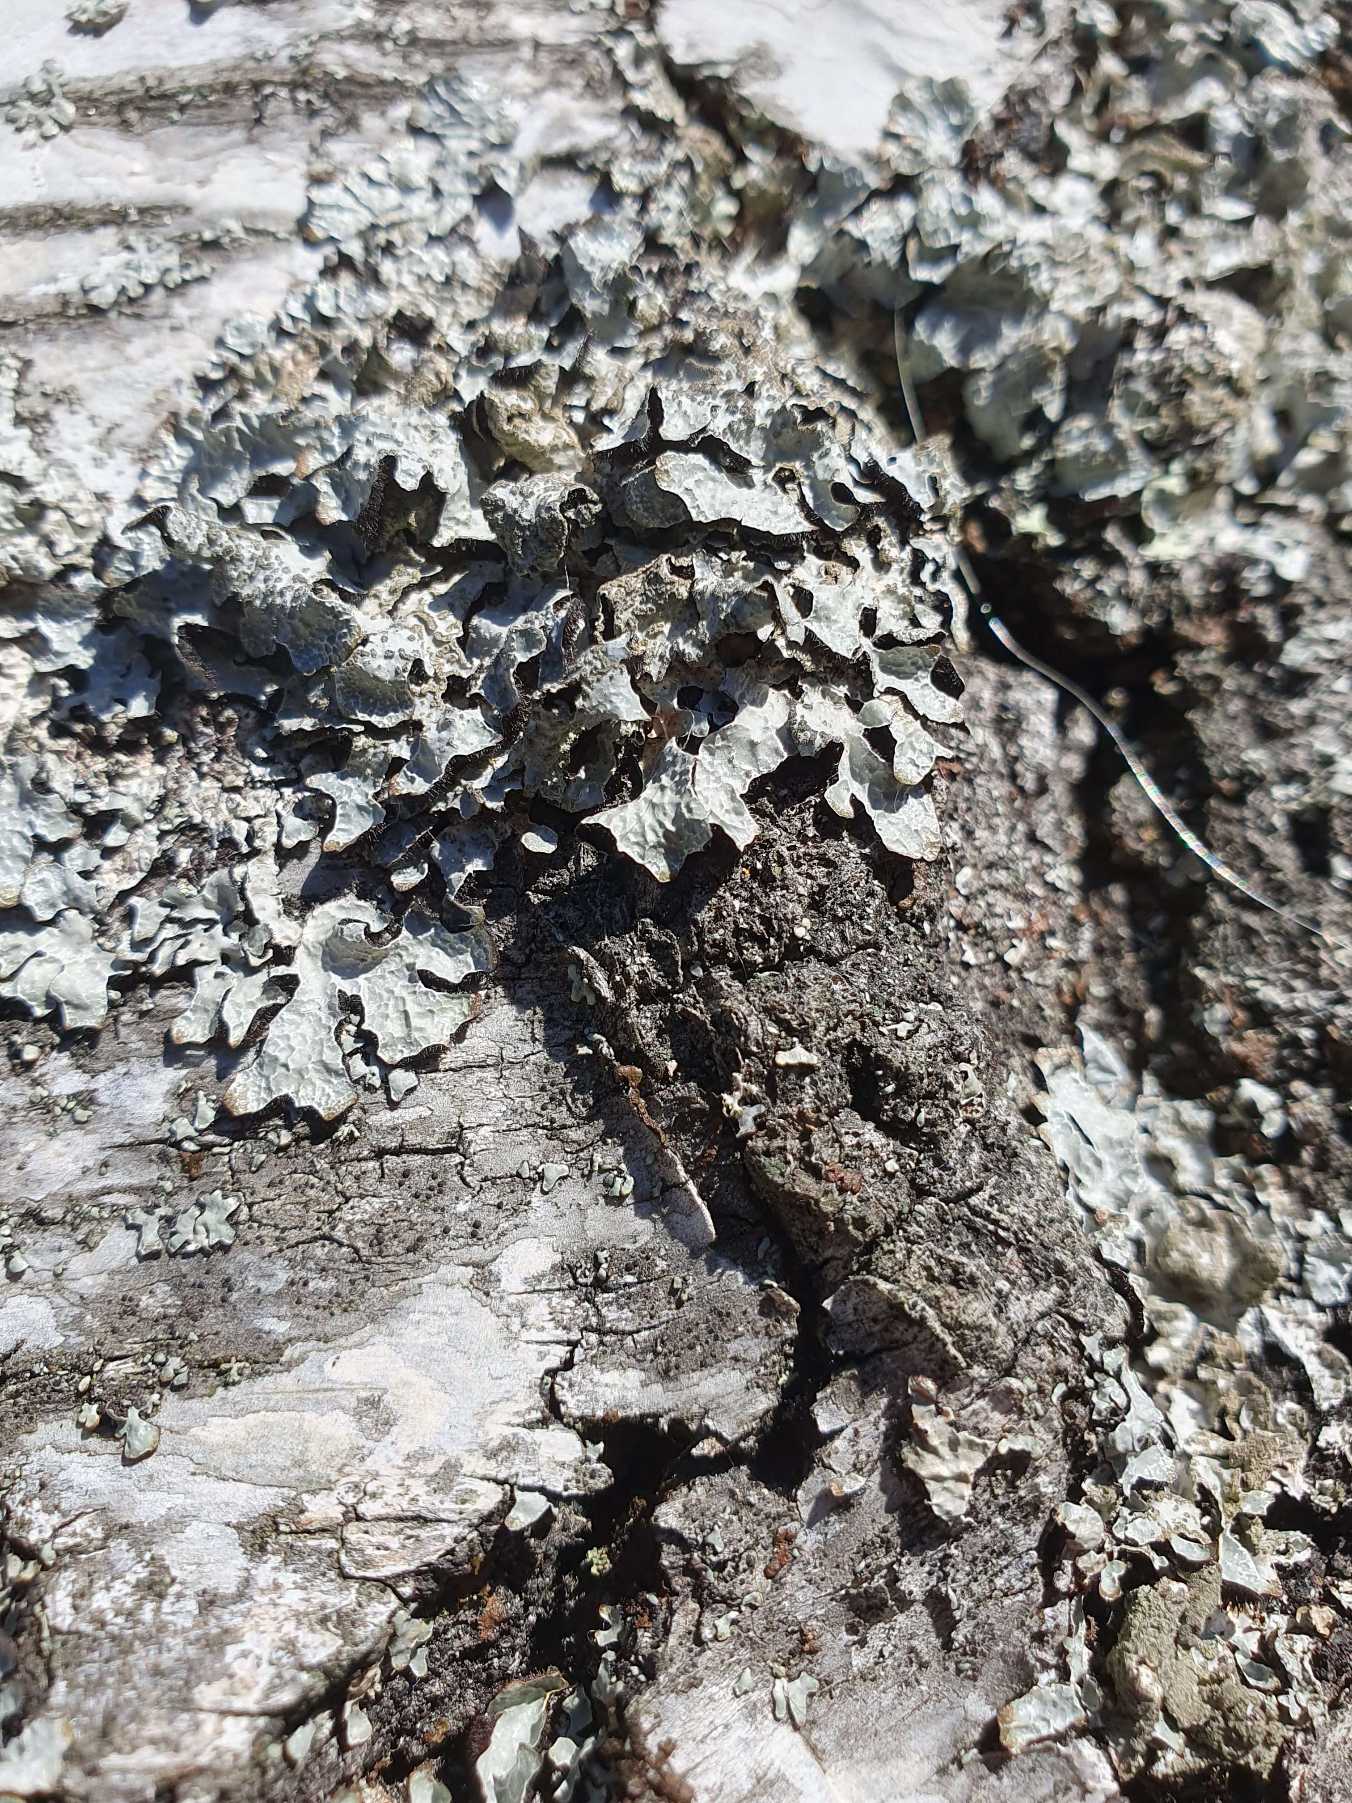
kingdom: Fungi
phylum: Ascomycota
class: Lecanoromycetes
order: Lecanorales
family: Parmeliaceae
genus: Parmelia
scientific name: Parmelia sulcata
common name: Rynket skållav
